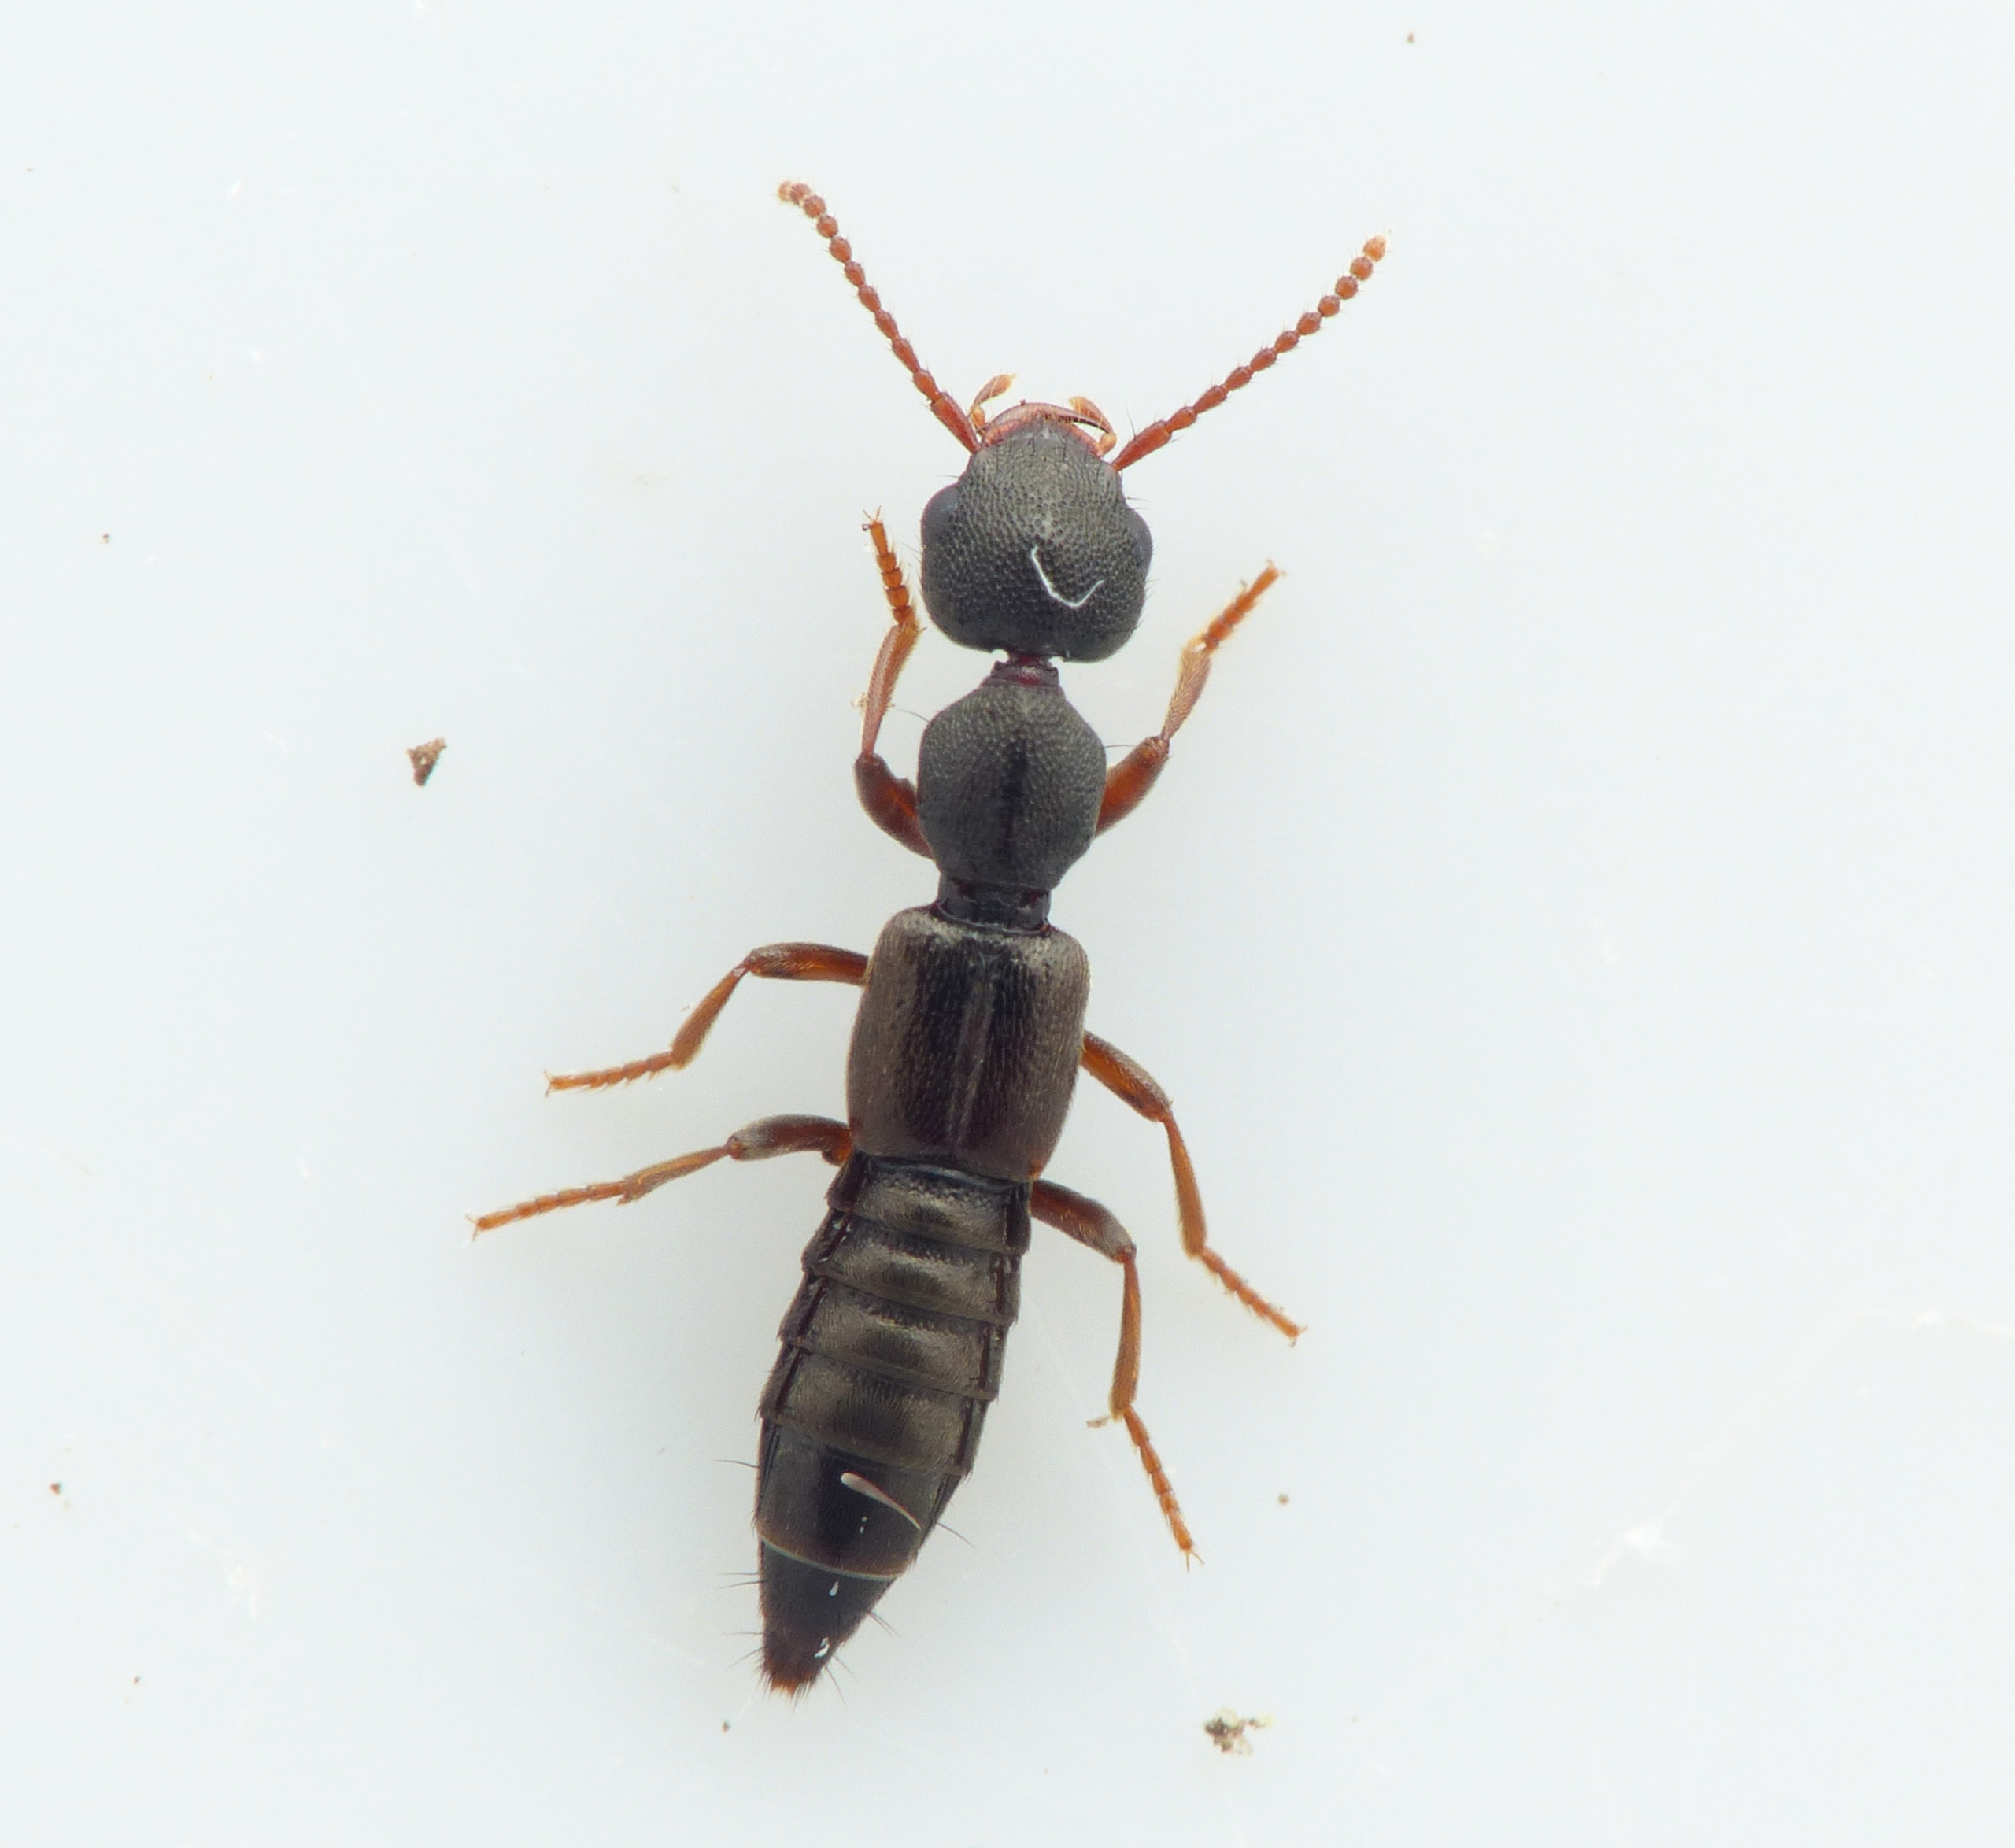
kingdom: Animalia
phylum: Arthropoda
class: Insecta
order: Coleoptera
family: Staphylinidae
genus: Rugilus
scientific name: Rugilus rufipes
